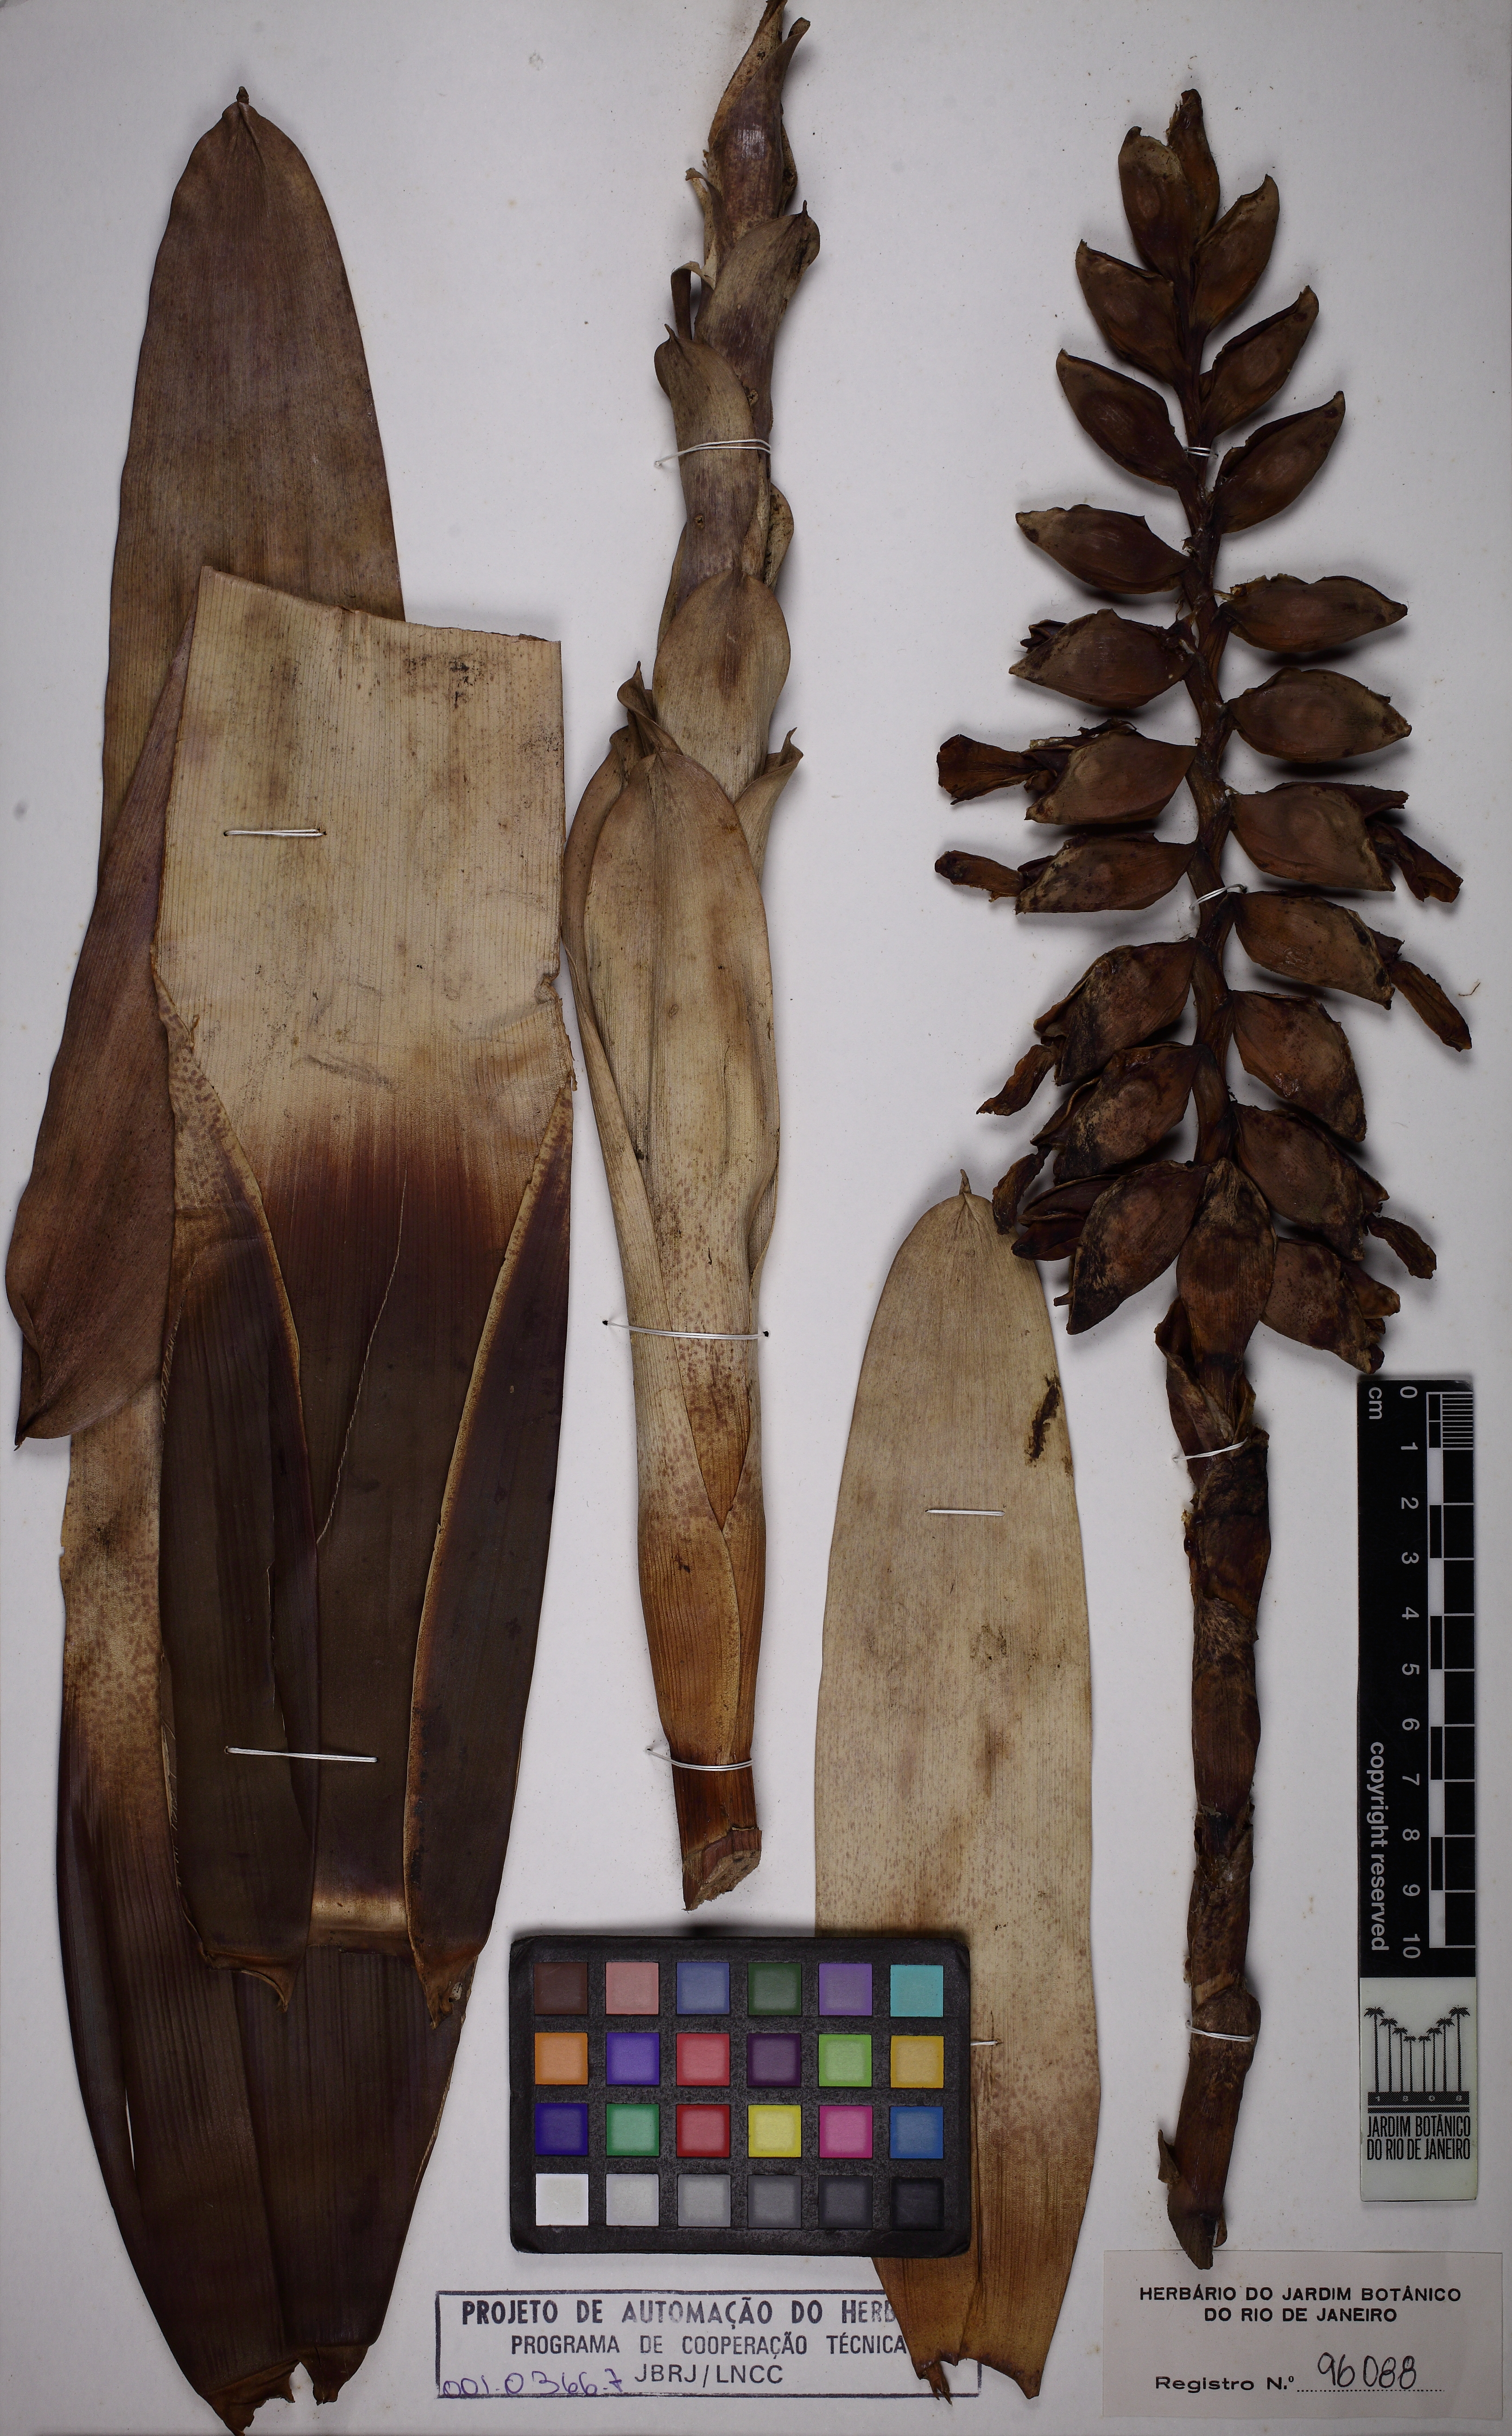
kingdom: Plantae
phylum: Tracheophyta
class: Liliopsida
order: Poales
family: Bromeliaceae
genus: Vriesea
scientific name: Vriesea pseudoatra
